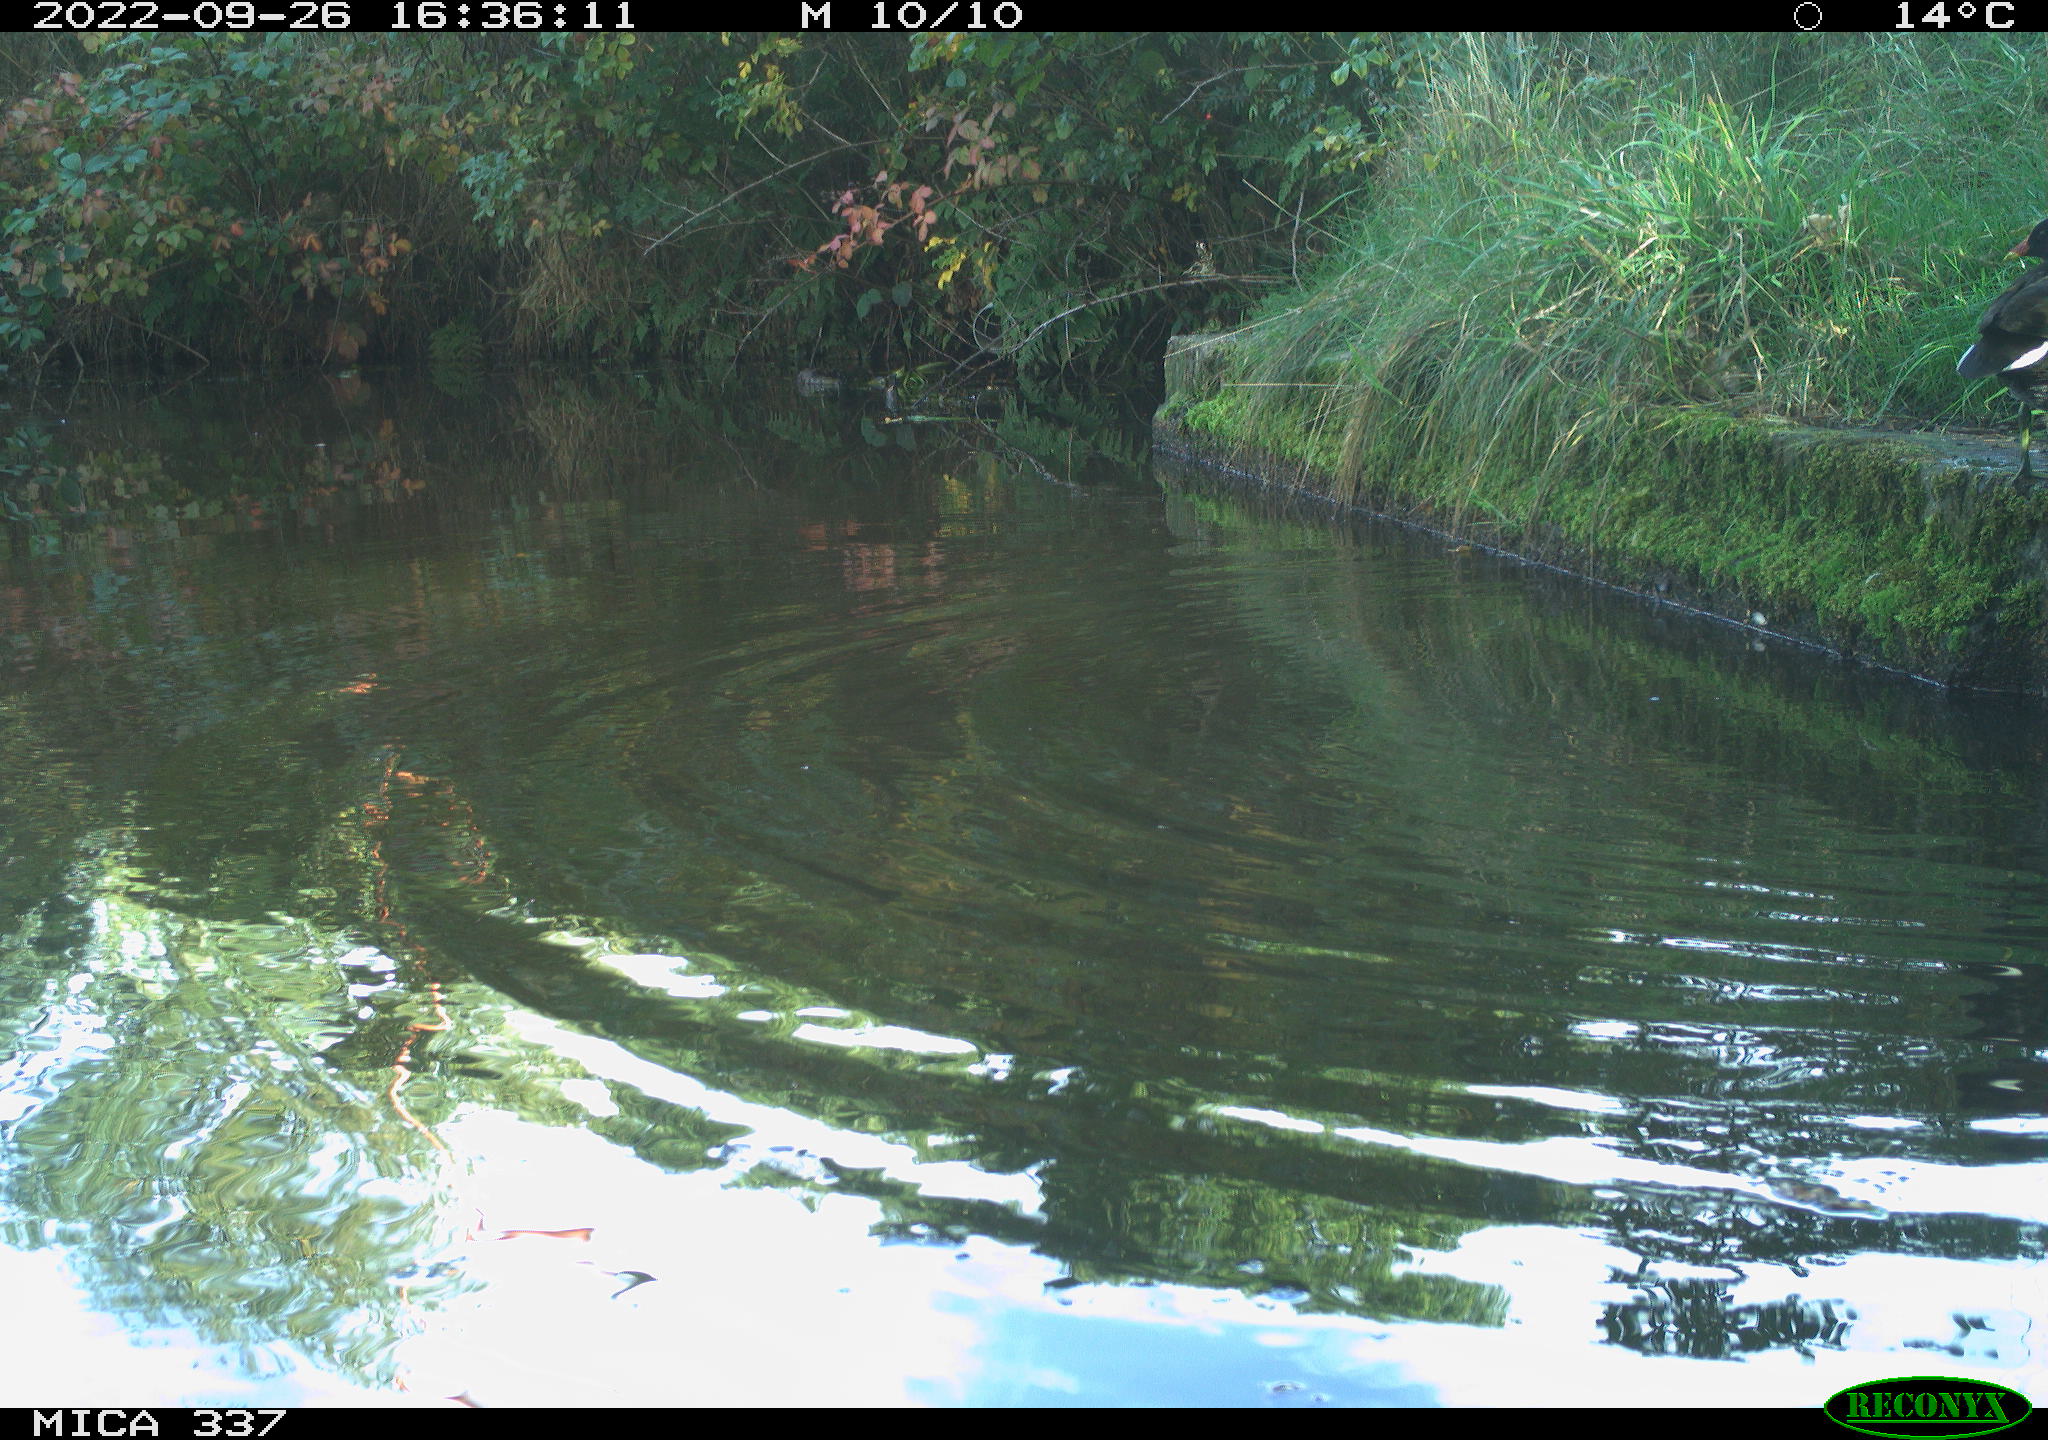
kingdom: Animalia
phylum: Chordata
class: Aves
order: Gruiformes
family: Rallidae
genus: Gallinula
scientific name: Gallinula chloropus
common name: Common moorhen
